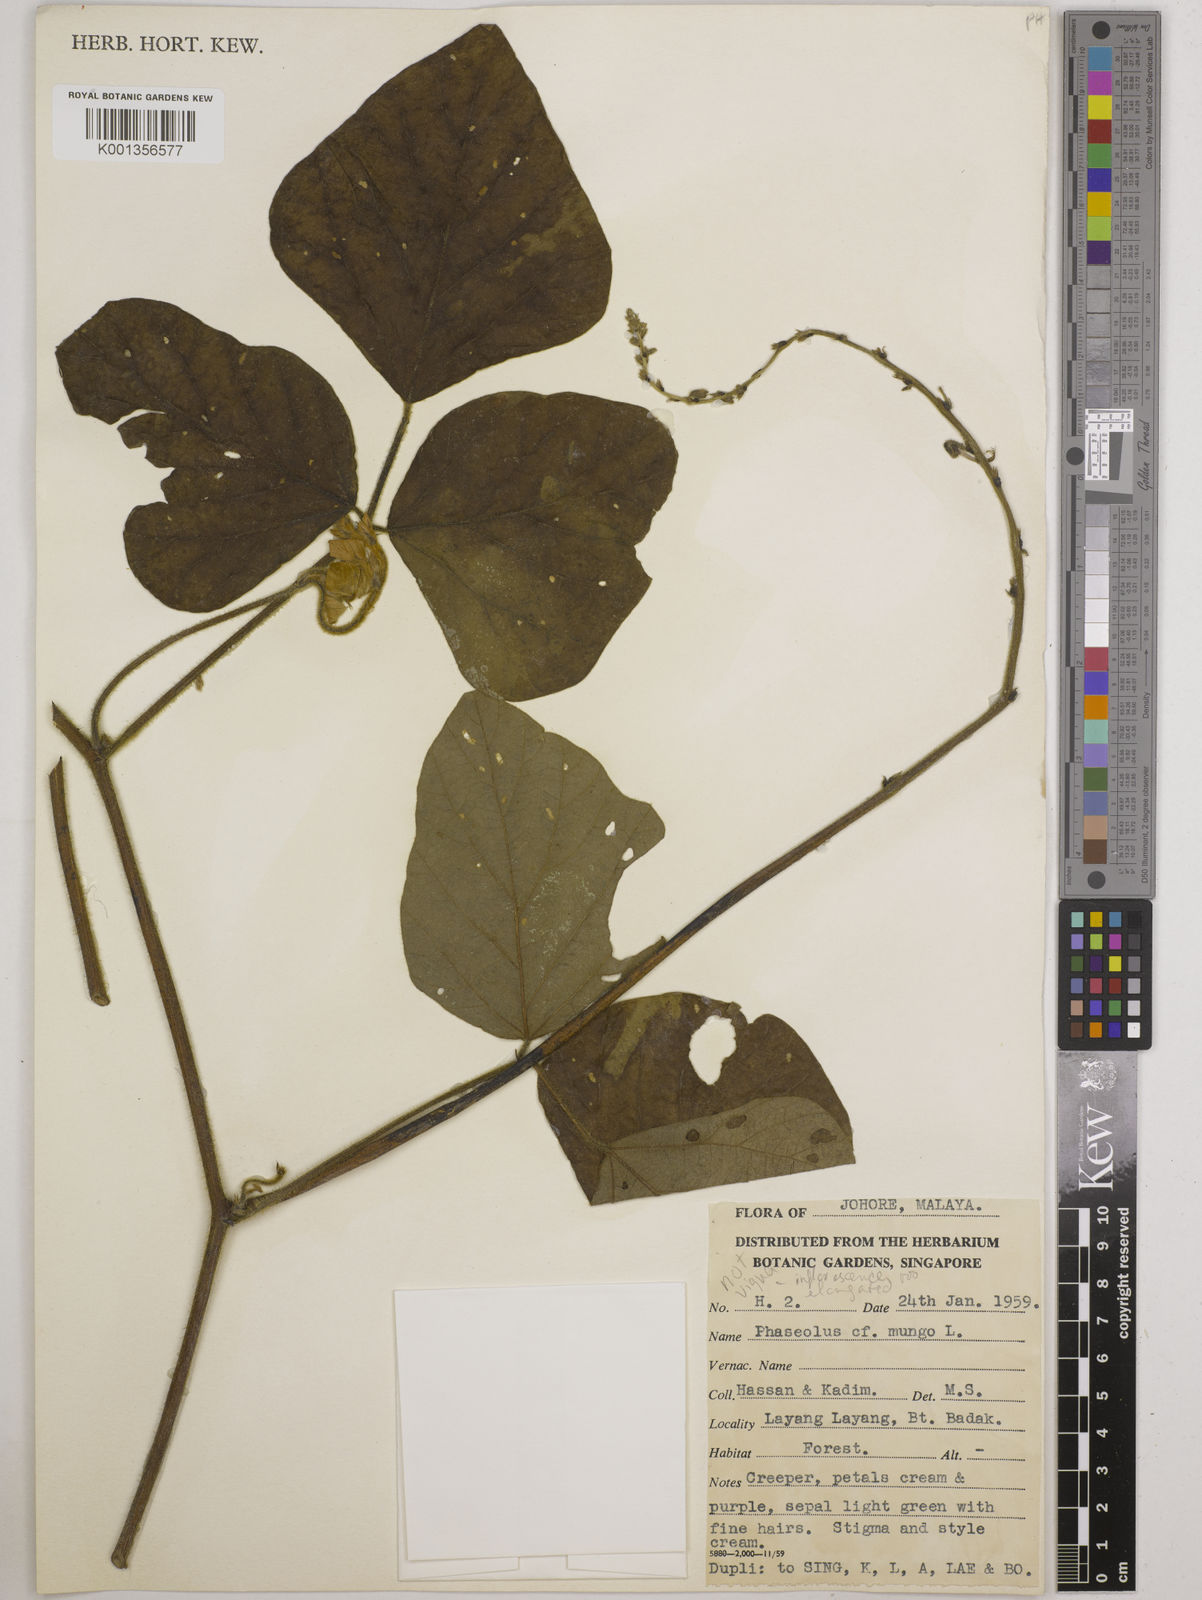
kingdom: Plantae
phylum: Tracheophyta
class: Magnoliopsida
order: Fabales
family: Fabaceae
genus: Vigna
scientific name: Vigna mungo
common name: Black gram
